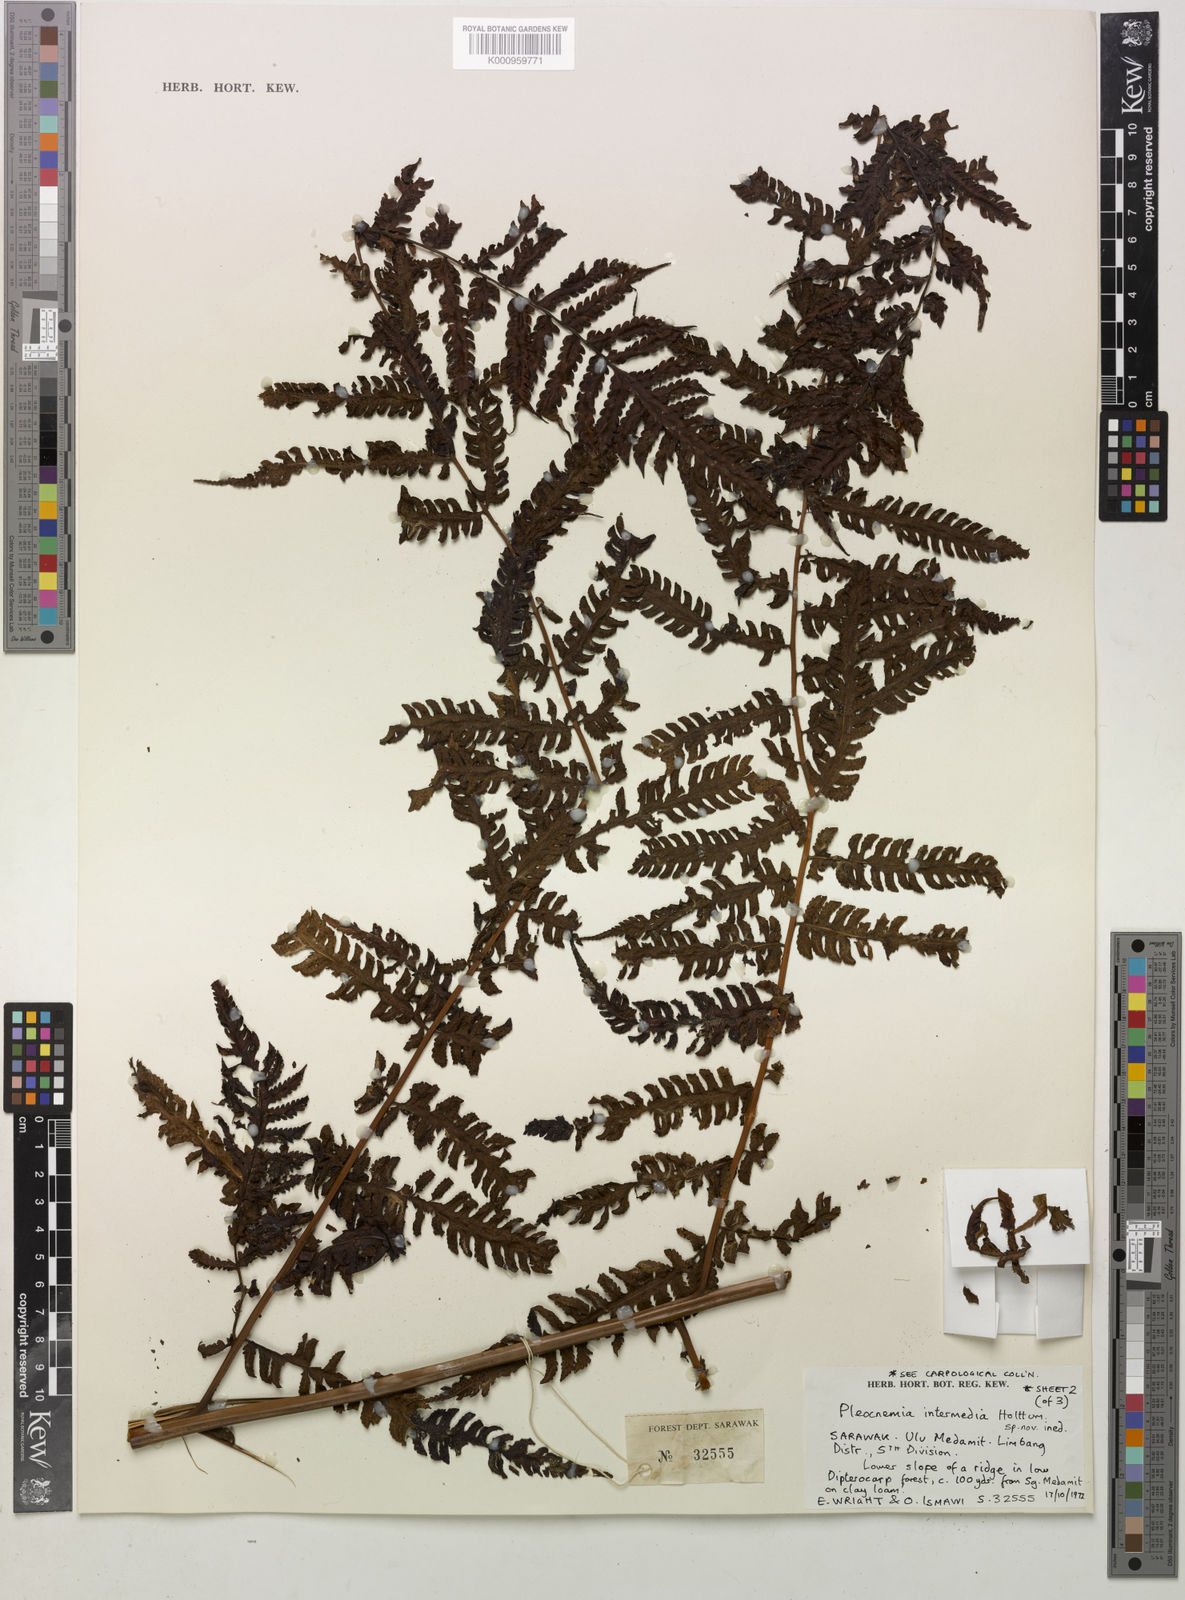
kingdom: Plantae
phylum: Tracheophyta
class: Polypodiopsida
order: Polypodiales
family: Dryopteridaceae
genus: Pleocnemia
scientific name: Pleocnemia intermedia
